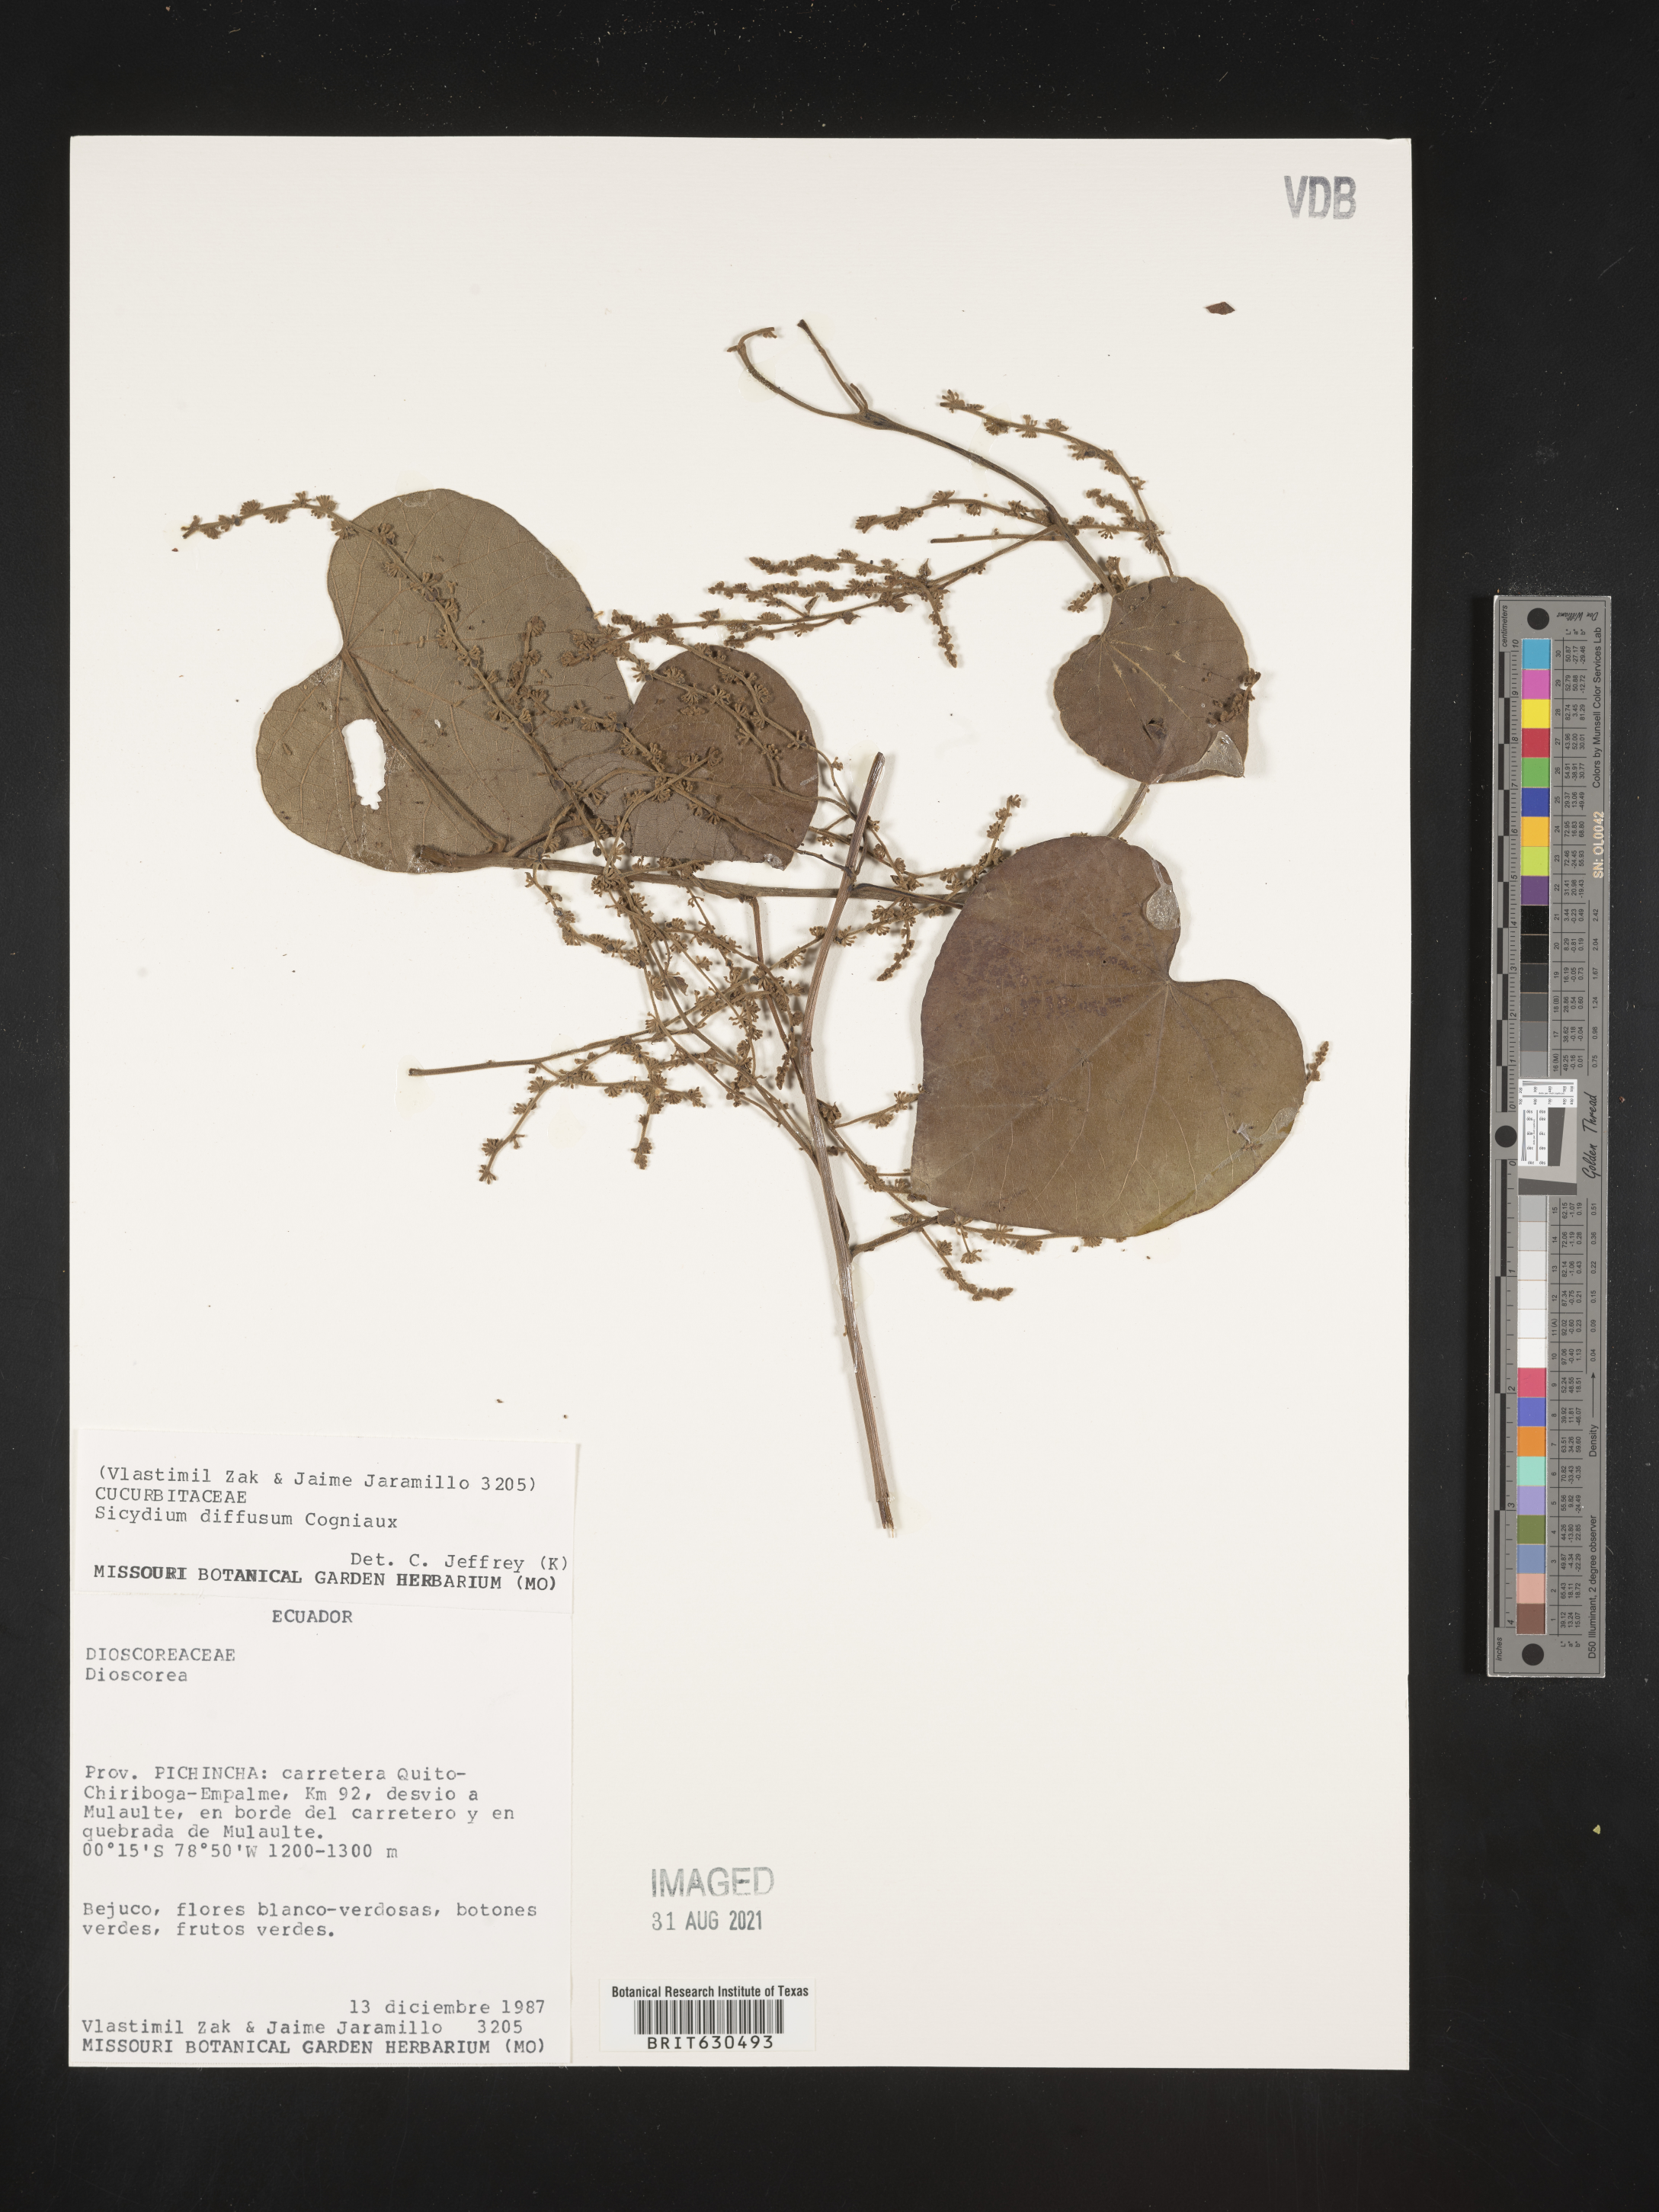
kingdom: Plantae
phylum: Tracheophyta
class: Magnoliopsida
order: Cucurbitales
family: Cucurbitaceae
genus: Sicydium
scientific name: Sicydium diffusum
